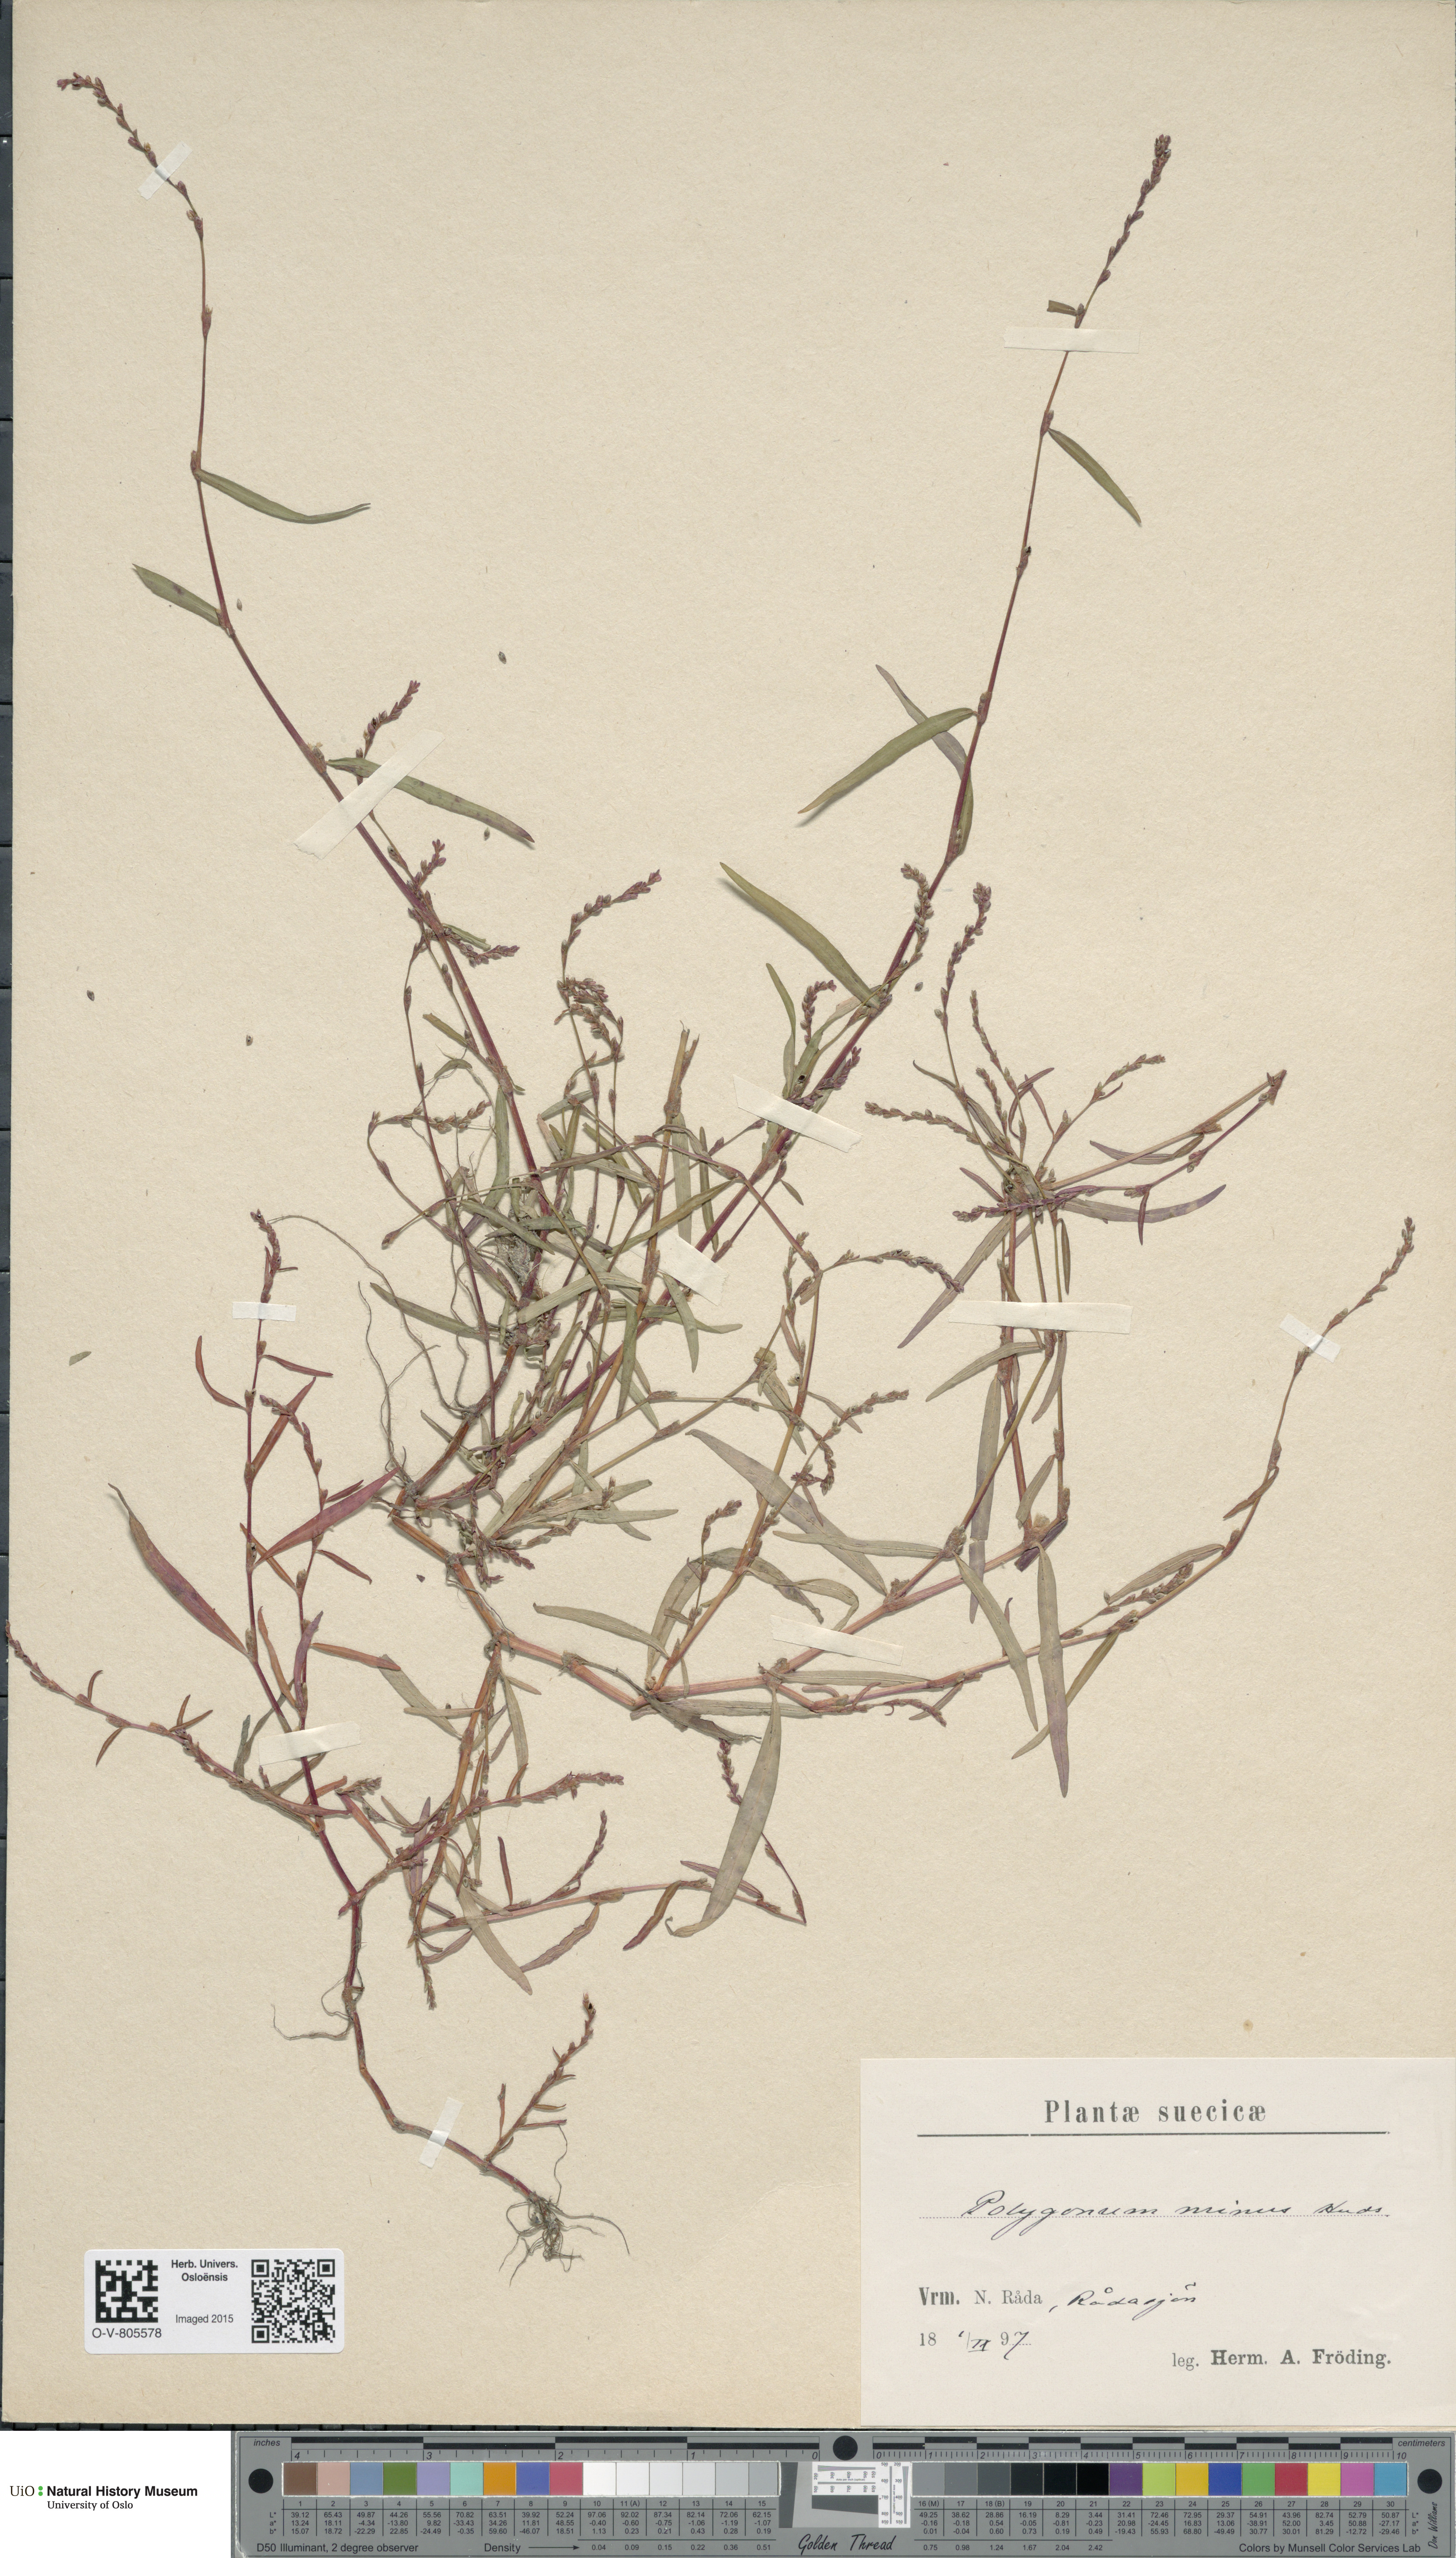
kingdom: Plantae
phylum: Tracheophyta
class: Magnoliopsida
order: Caryophyllales
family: Polygonaceae
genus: Persicaria
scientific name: Persicaria minor
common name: Small water-pepper
